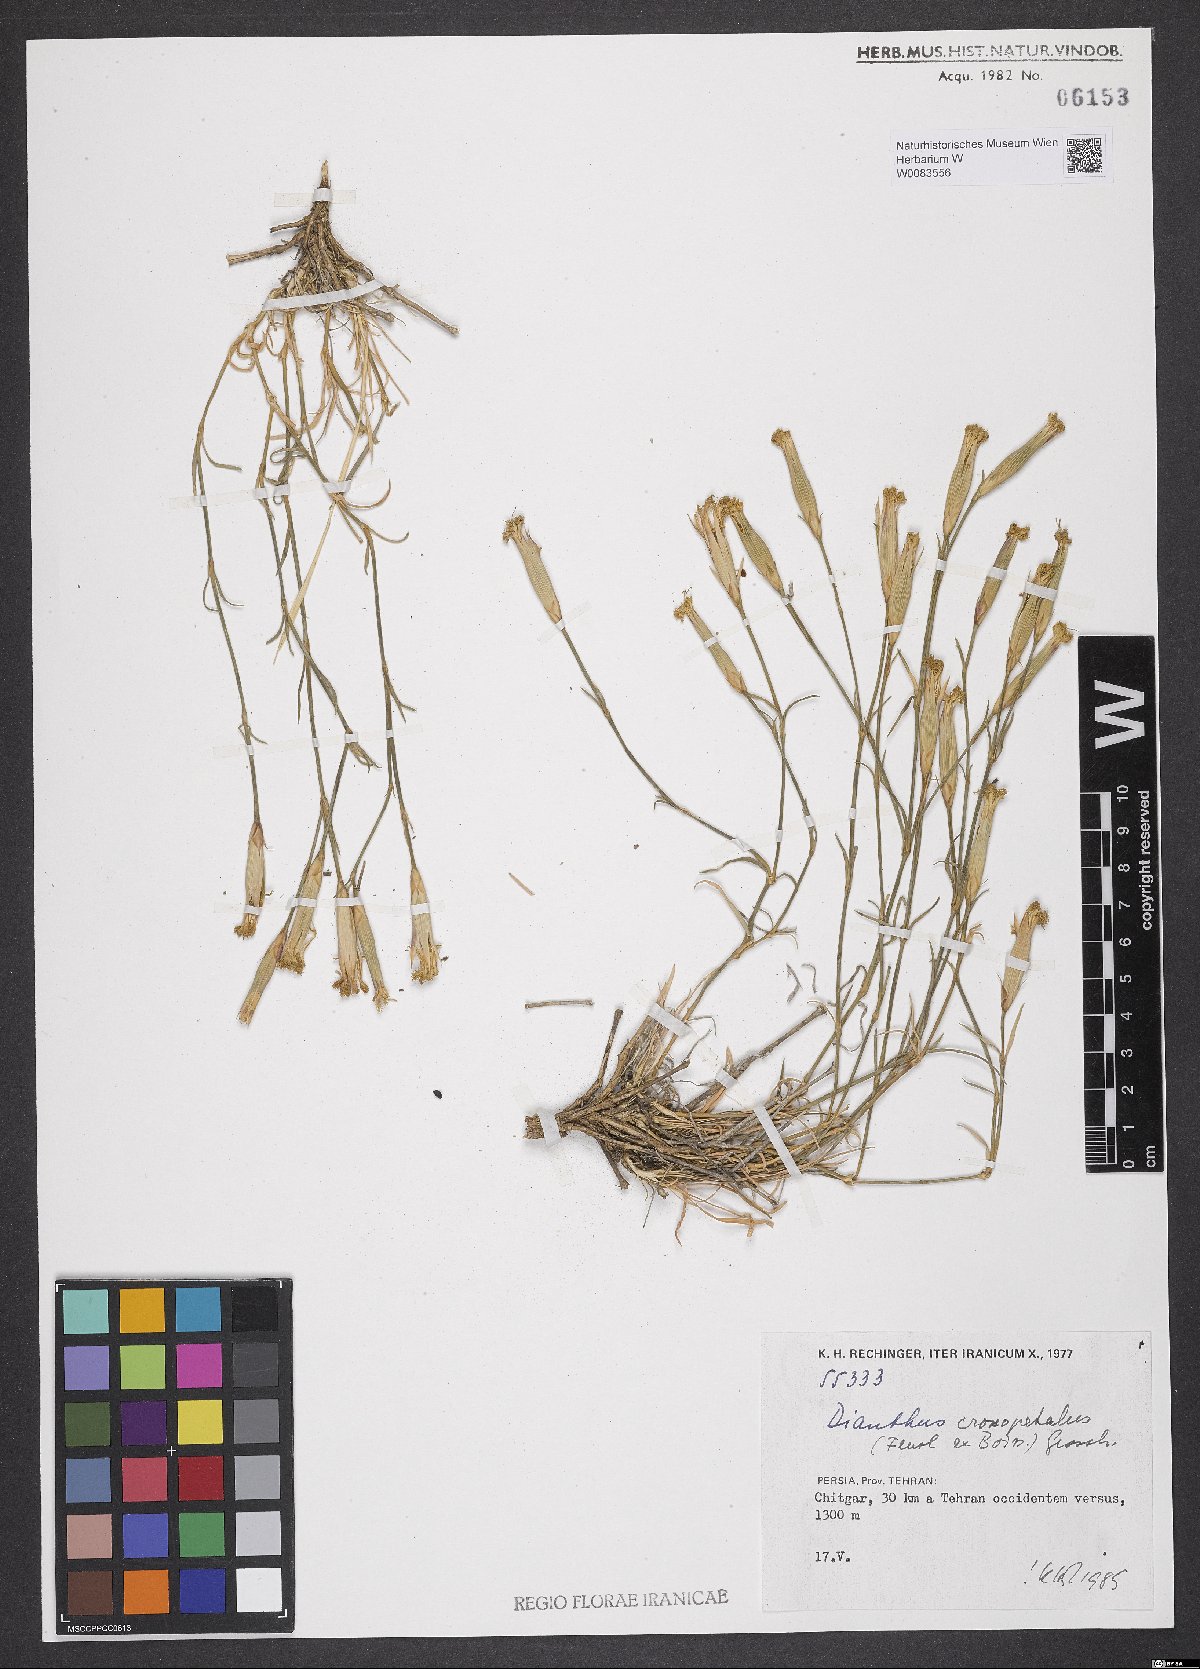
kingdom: Plantae
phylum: Tracheophyta
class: Magnoliopsida
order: Caryophyllales
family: Caryophyllaceae
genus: Dianthus
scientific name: Dianthus crossopetalus
